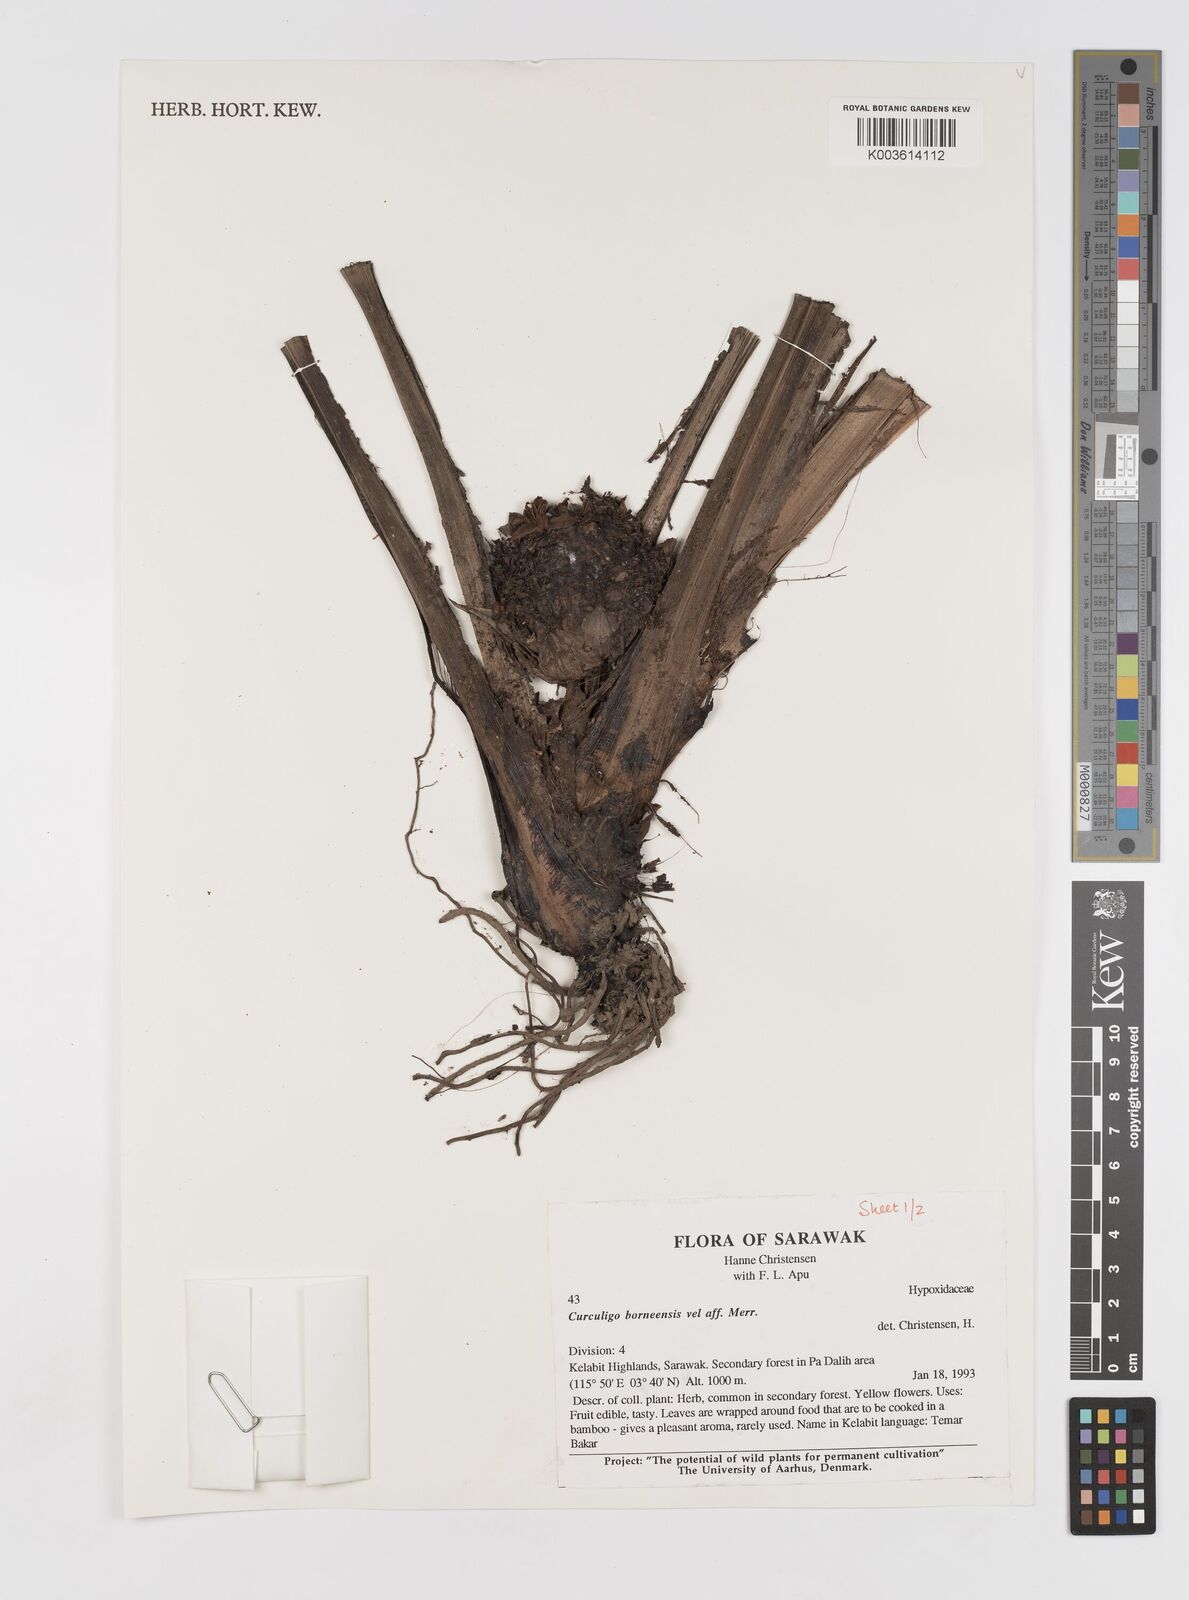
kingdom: Plantae
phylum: Tracheophyta
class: Liliopsida
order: Asparagales
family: Hypoxidaceae
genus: Curculigo
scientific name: Curculigo latifolia
